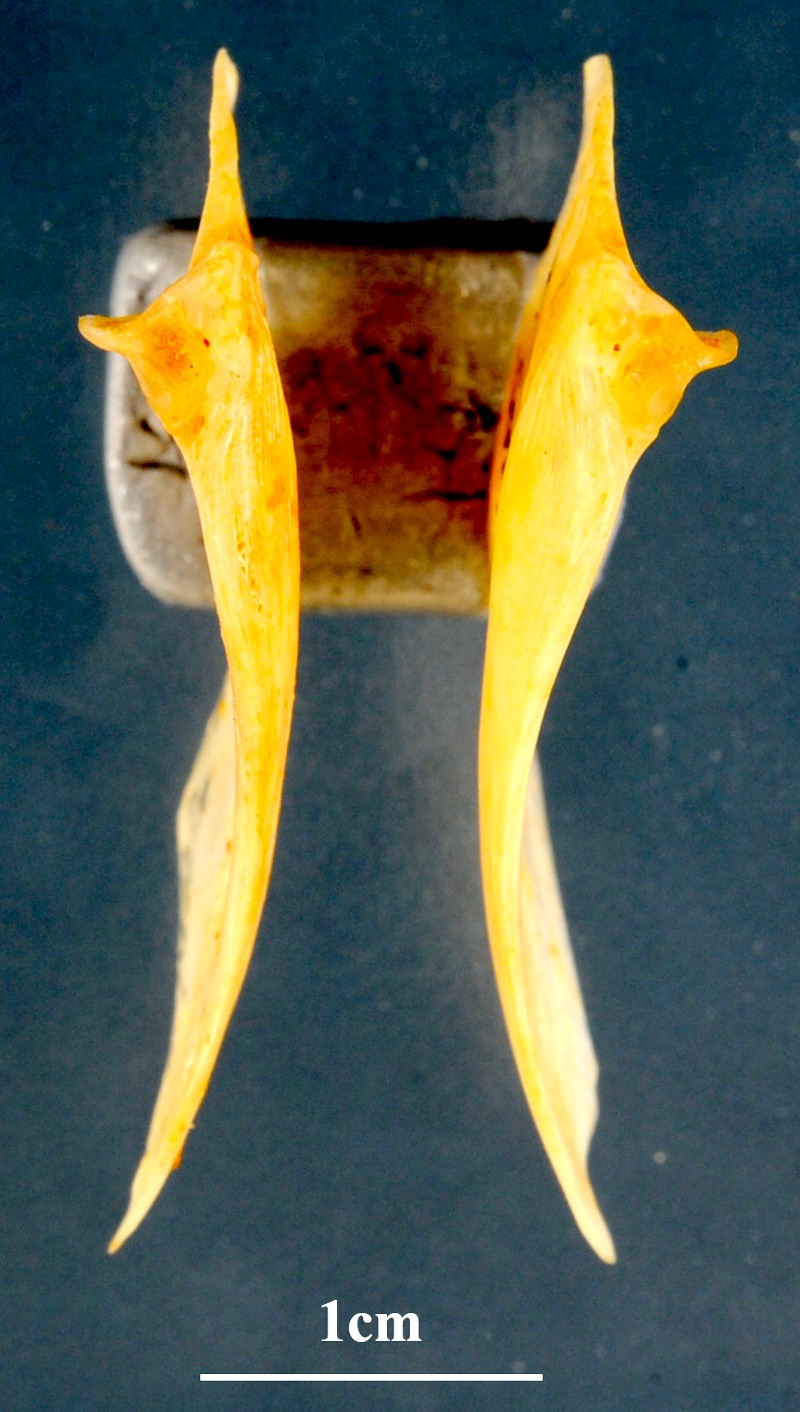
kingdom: Animalia
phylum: Chordata
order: Perciformes
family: Sparidae
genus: Sarpa
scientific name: Sarpa salpa
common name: Salema
